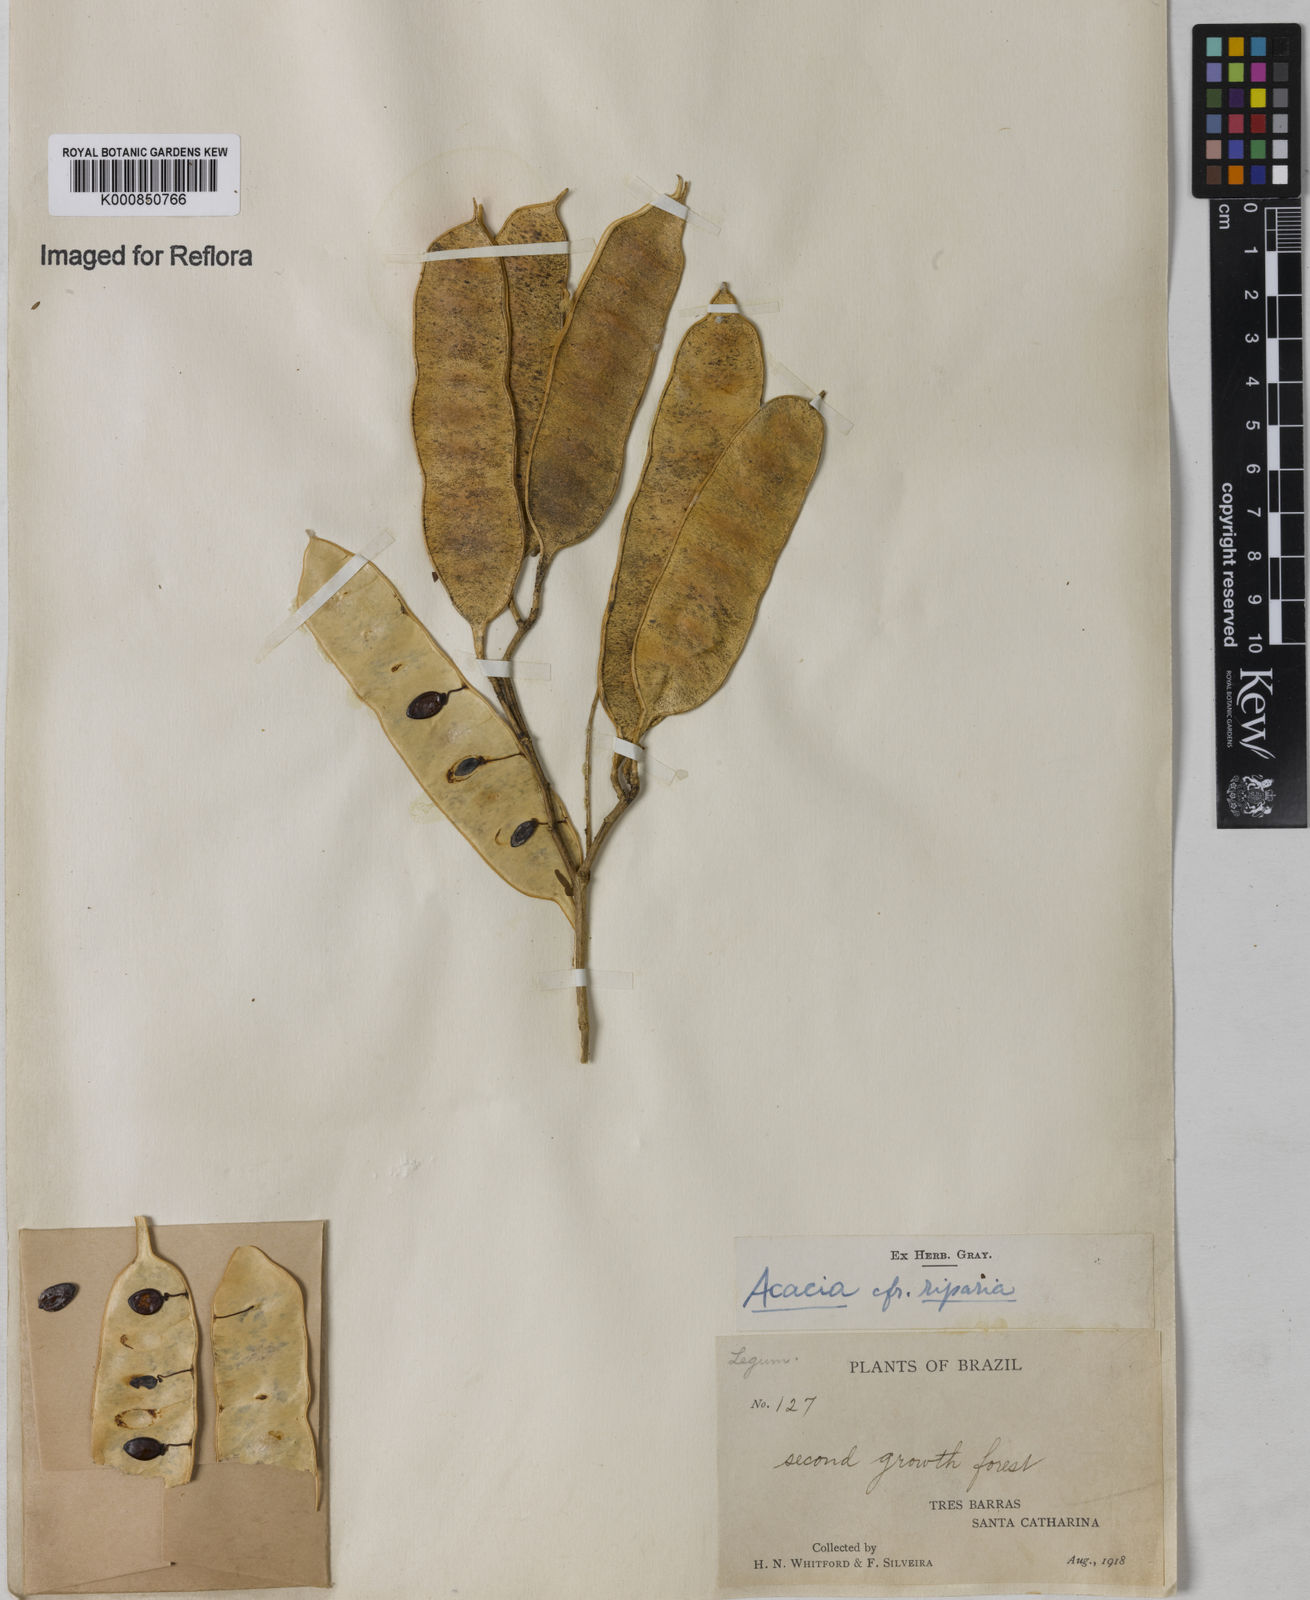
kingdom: Plantae
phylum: Tracheophyta
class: Magnoliopsida
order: Fabales
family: Fabaceae
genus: Senegalia
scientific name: Senegalia riparia
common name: Catch-and-keep
